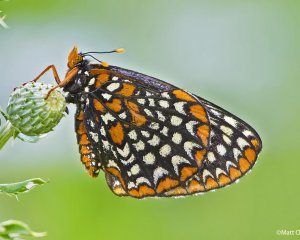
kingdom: Animalia
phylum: Arthropoda
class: Insecta
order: Lepidoptera
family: Nymphalidae
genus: Euphydryas
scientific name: Euphydryas phaeton
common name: Baltimore Checkerspot
